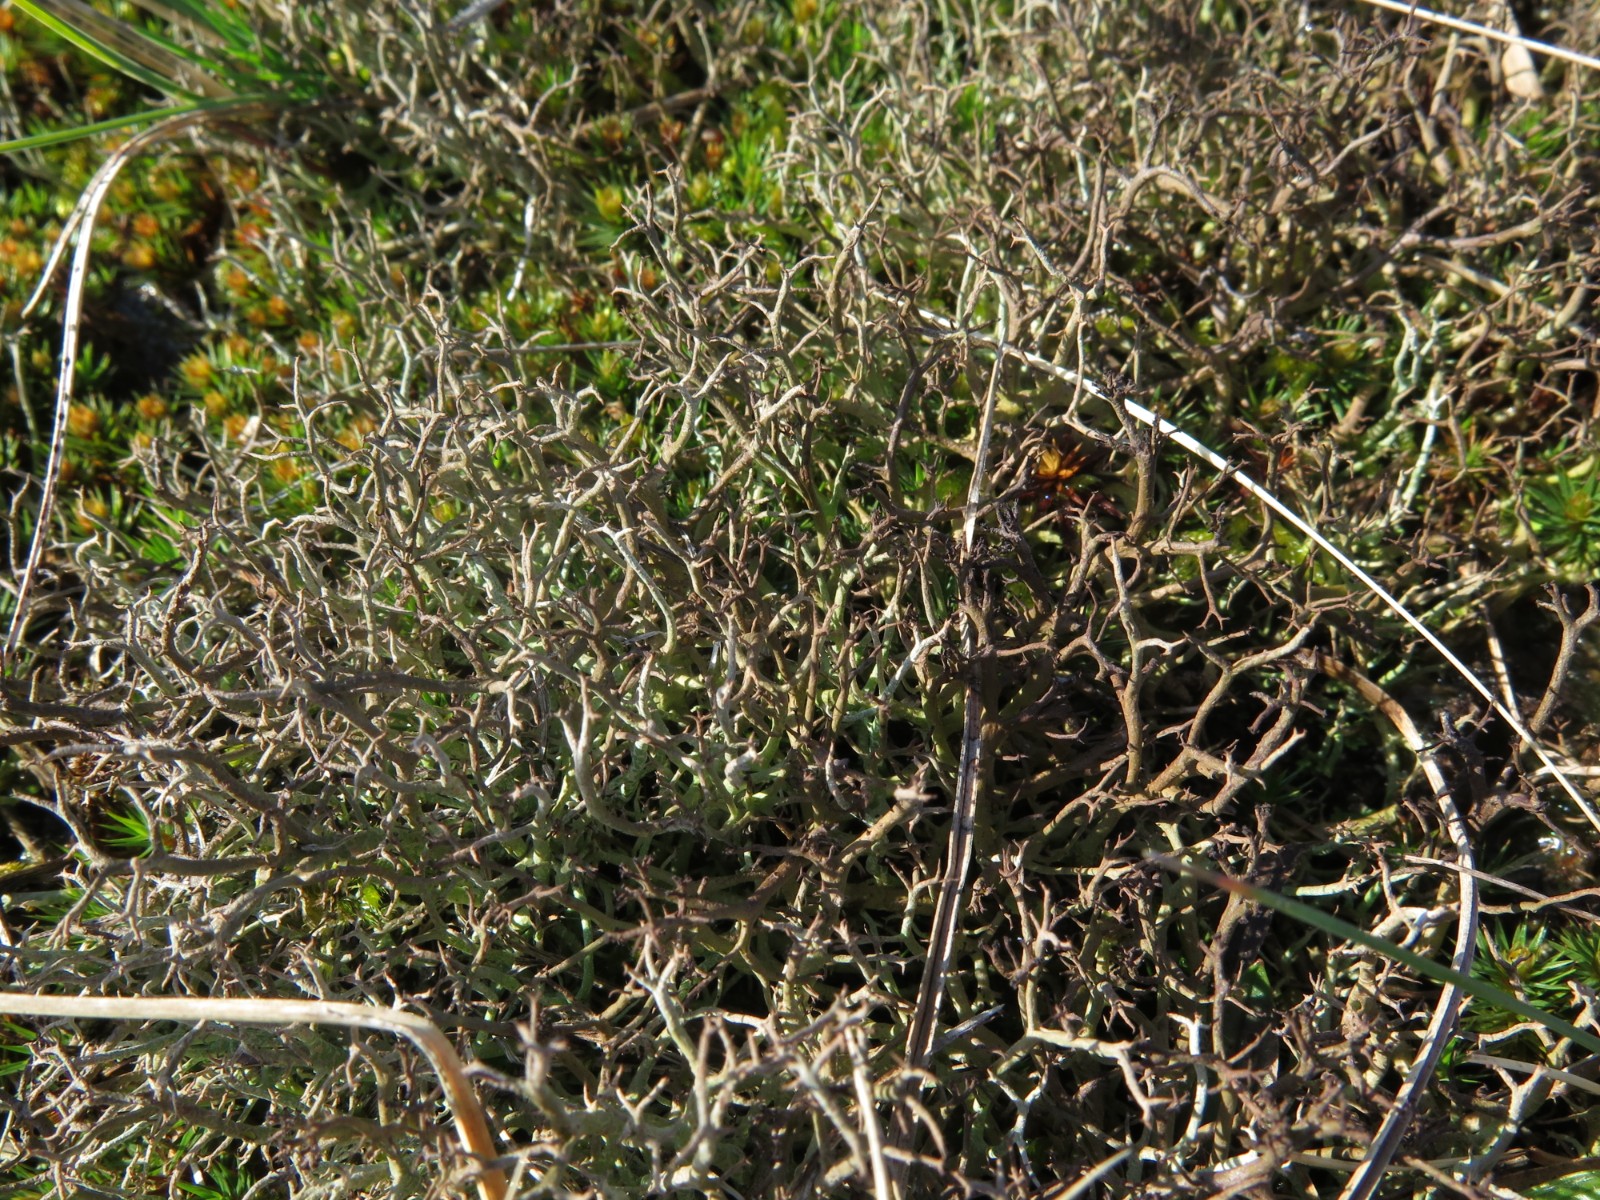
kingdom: Fungi
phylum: Ascomycota
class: Lecanoromycetes
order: Lecanorales
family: Cladoniaceae
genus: Cladonia
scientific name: Cladonia furcata
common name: kløftet bægerlav
